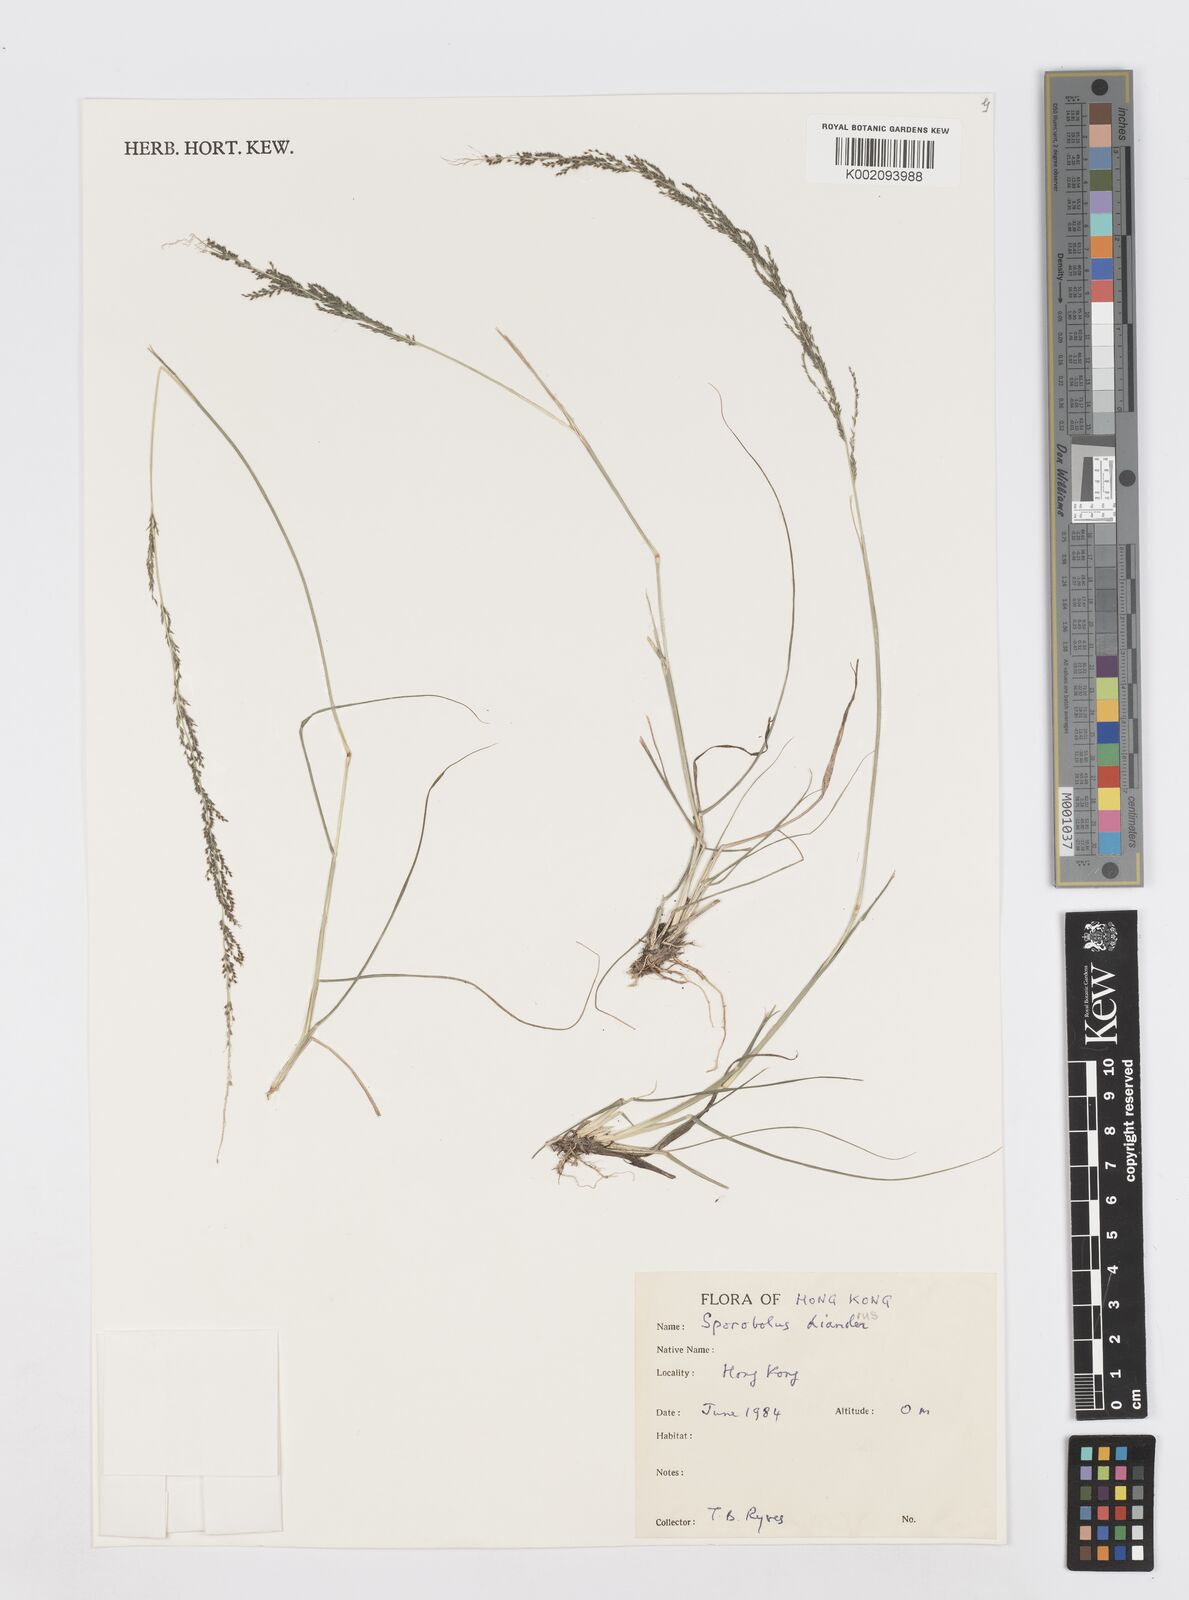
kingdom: Plantae
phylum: Tracheophyta
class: Liliopsida
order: Poales
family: Poaceae
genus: Sporobolus
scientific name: Sporobolus diandrus
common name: Tussock dropseed
